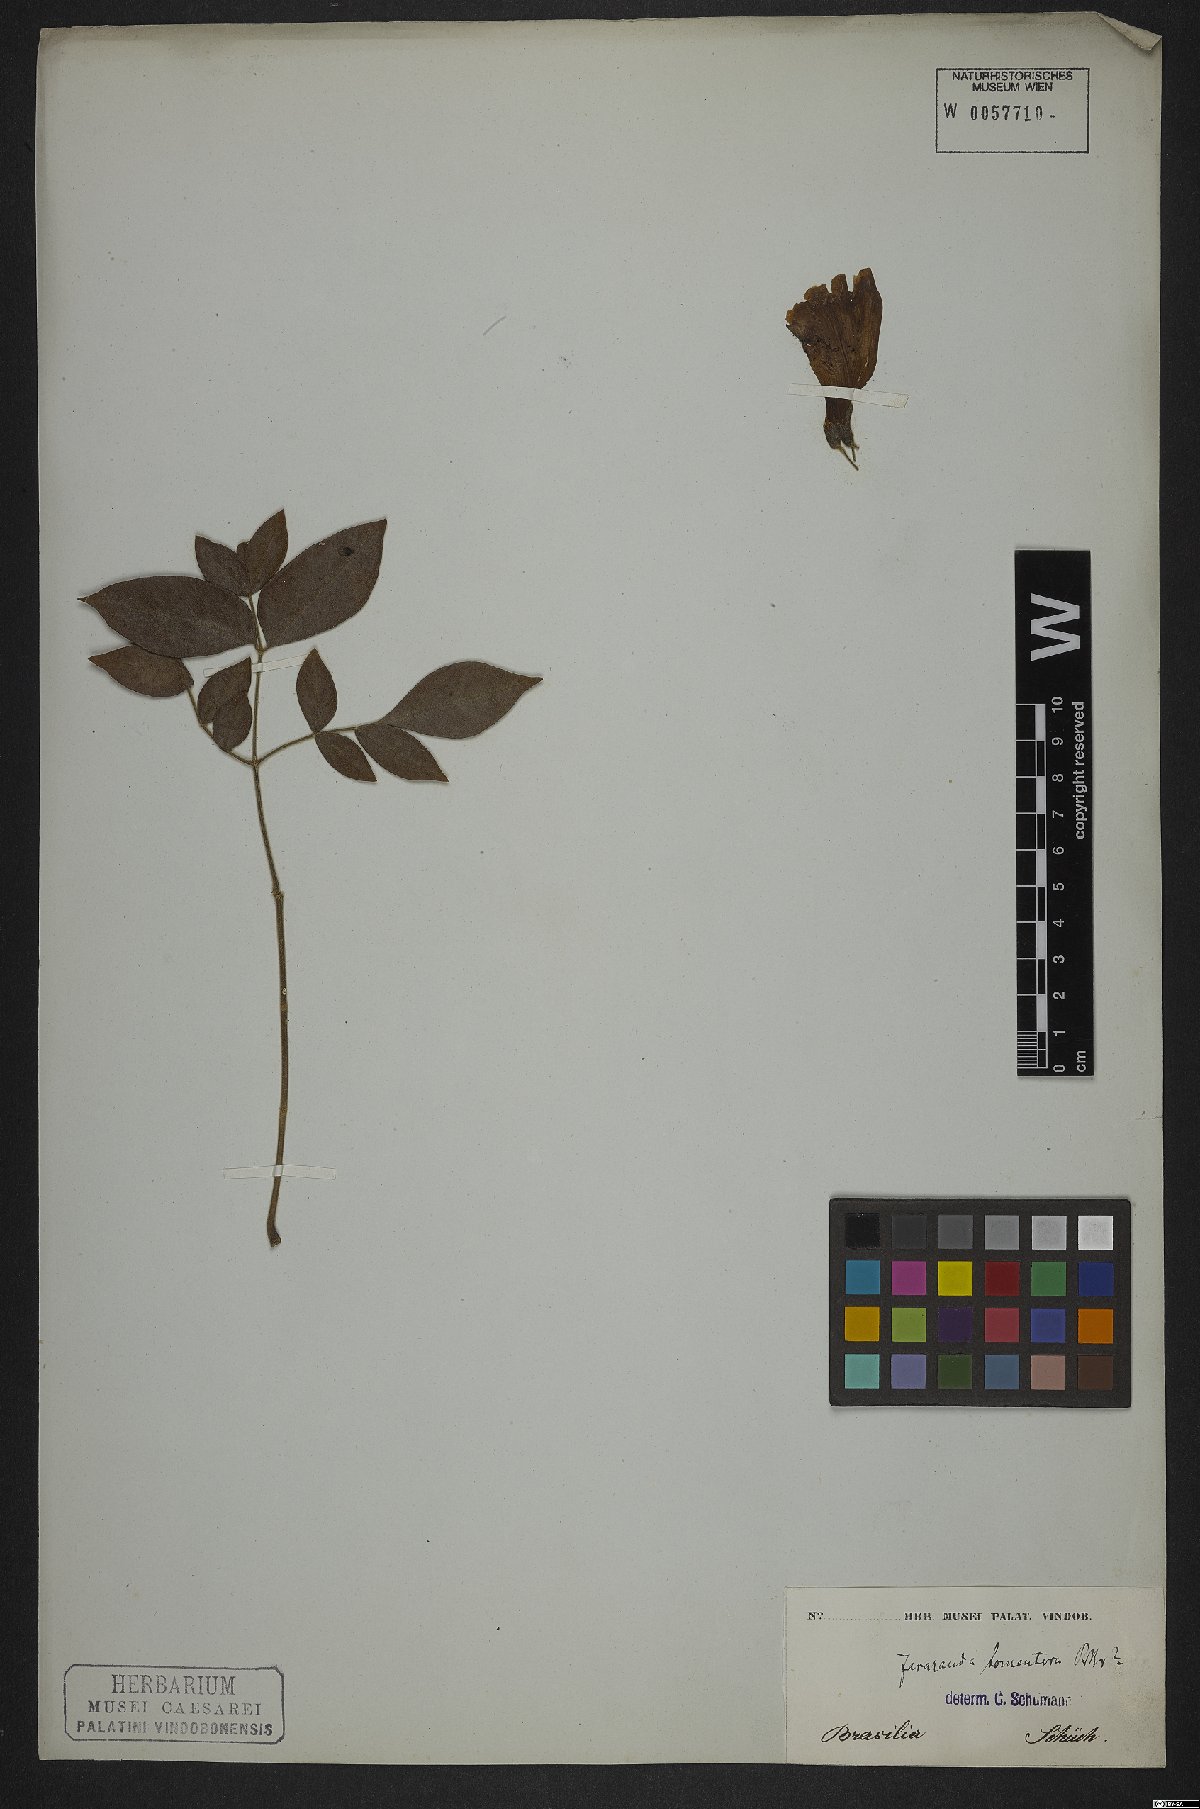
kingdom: Plantae
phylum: Tracheophyta
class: Magnoliopsida
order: Lamiales
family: Bignoniaceae
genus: Jacaranda
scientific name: Jacaranda jasminoides
